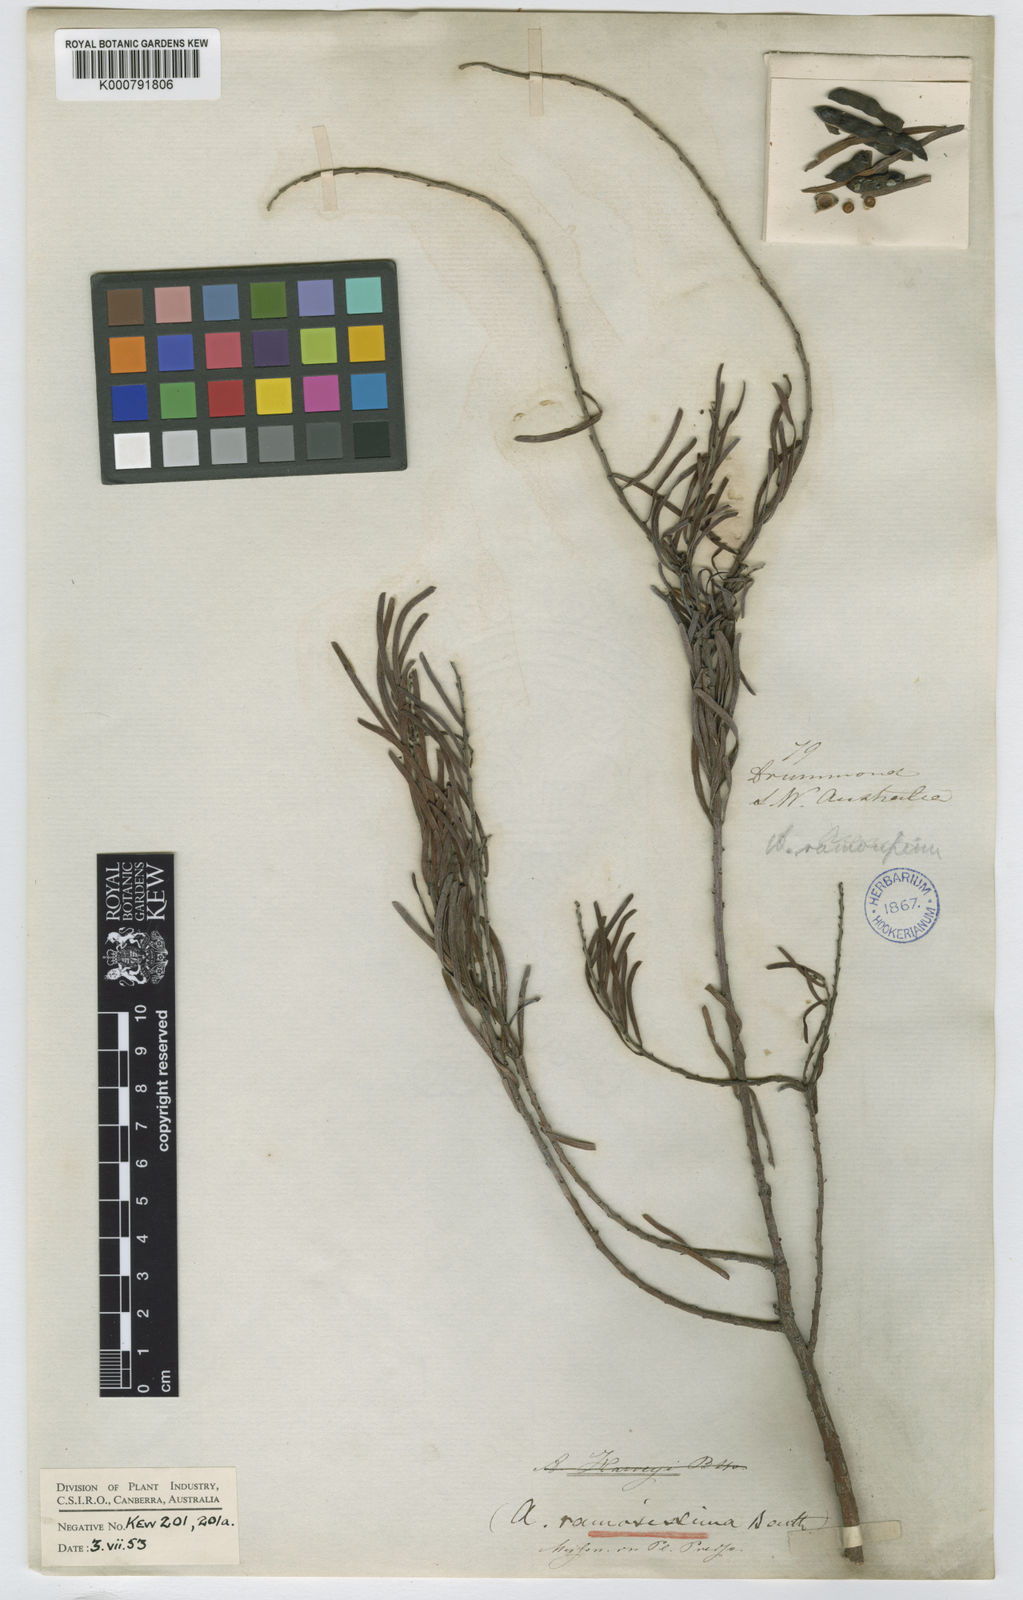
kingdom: Plantae
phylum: Tracheophyta
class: Magnoliopsida
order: Fabales
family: Fabaceae
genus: Acacia
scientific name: Acacia maxwellii
